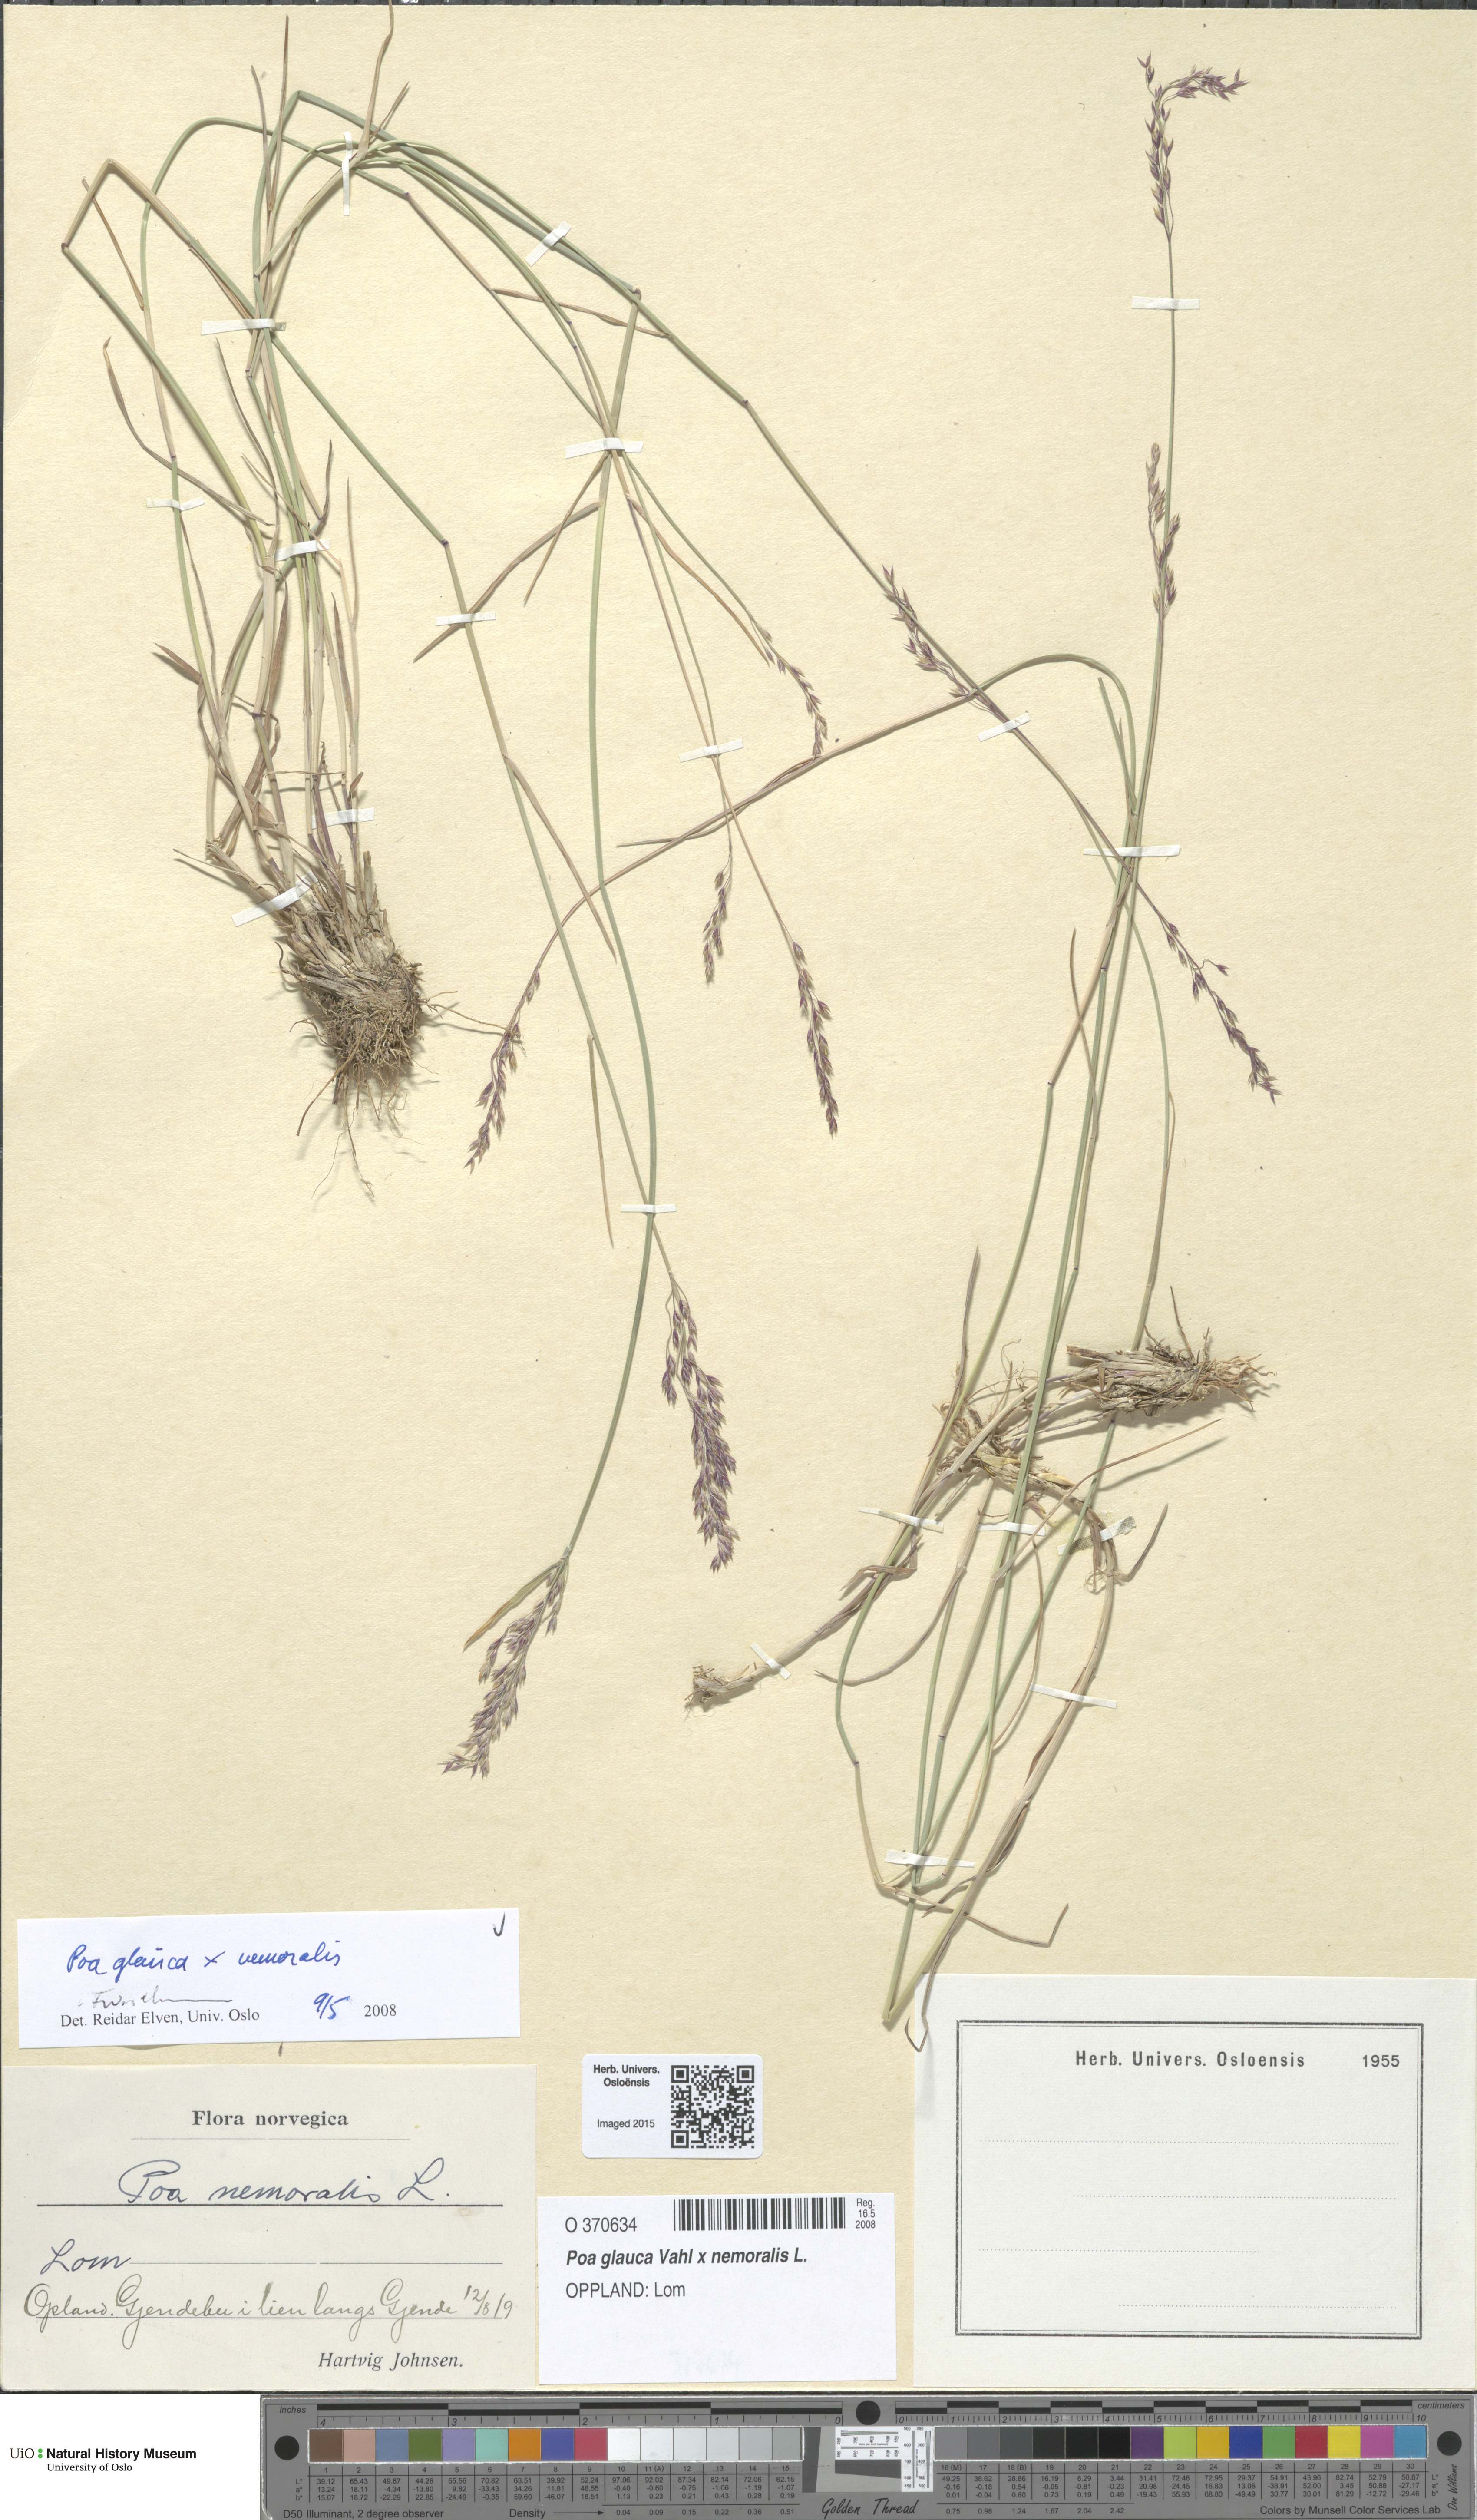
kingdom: Plantae
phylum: Tracheophyta
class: Liliopsida
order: Poales
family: Poaceae
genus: Poa
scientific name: Poa
